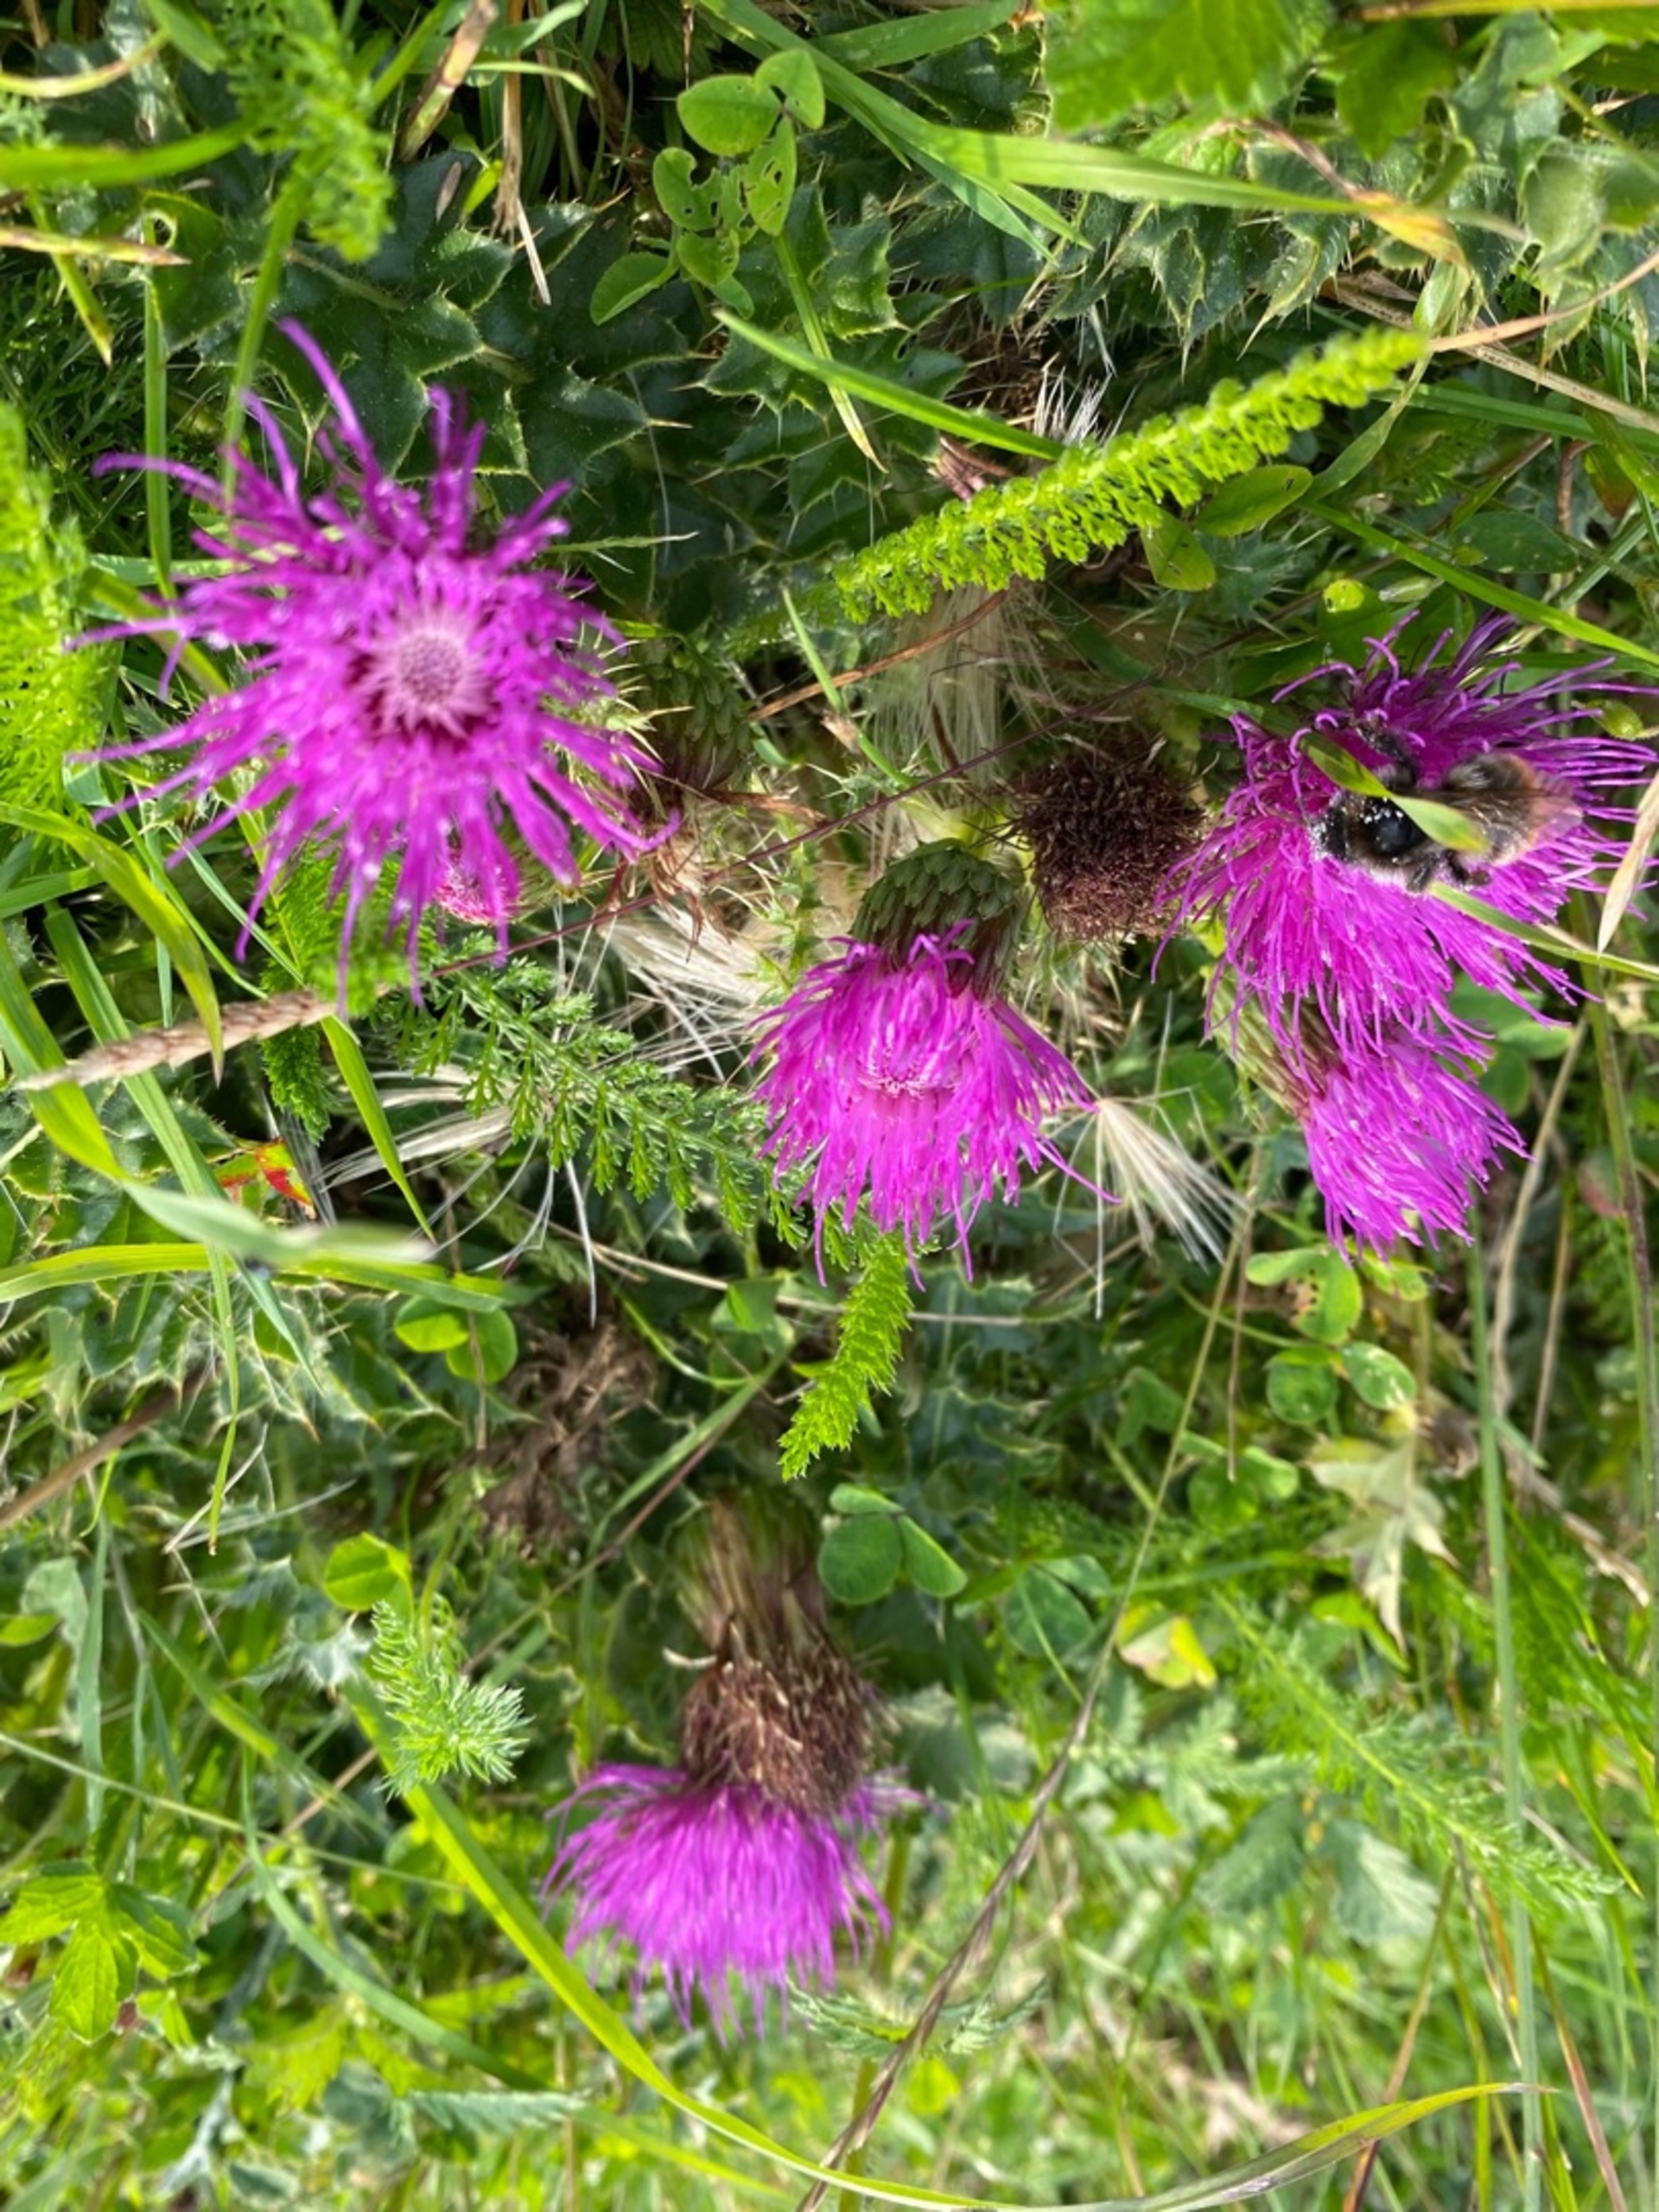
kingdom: Plantae
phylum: Tracheophyta
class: Magnoliopsida
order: Asterales
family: Asteraceae
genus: Cirsium
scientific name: Cirsium acaule
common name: Lav tidsel
